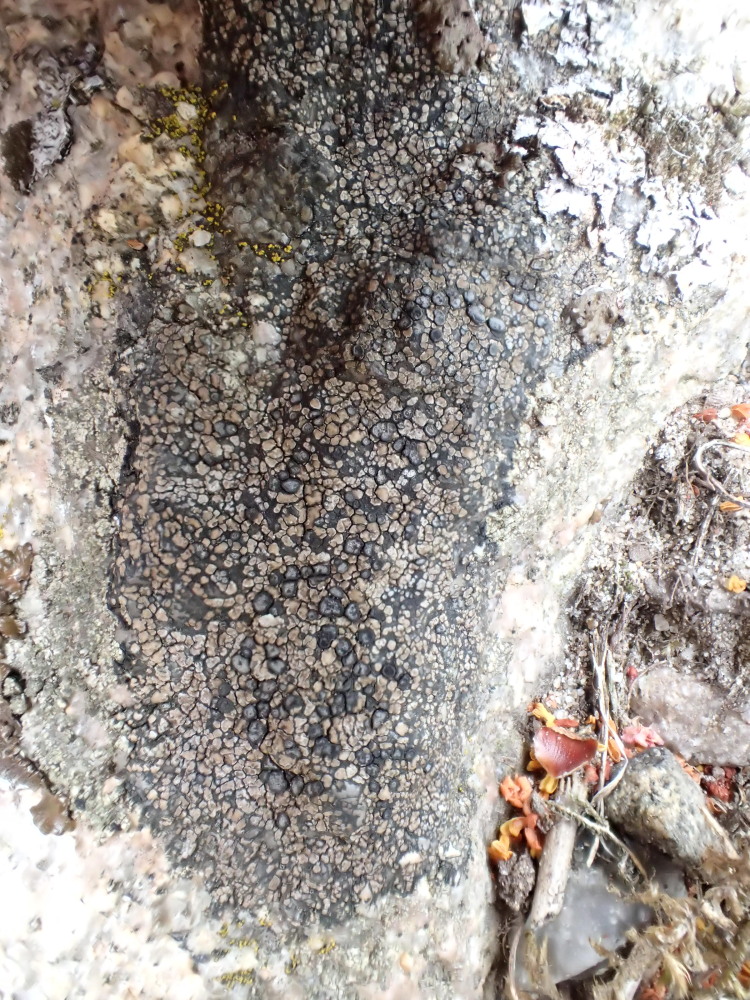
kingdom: Fungi
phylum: Ascomycota
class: Lecanoromycetes
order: Lecideales
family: Lecideaceae
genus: Lecidea
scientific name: Lecidea fuscoatra
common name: rudret skivelav
